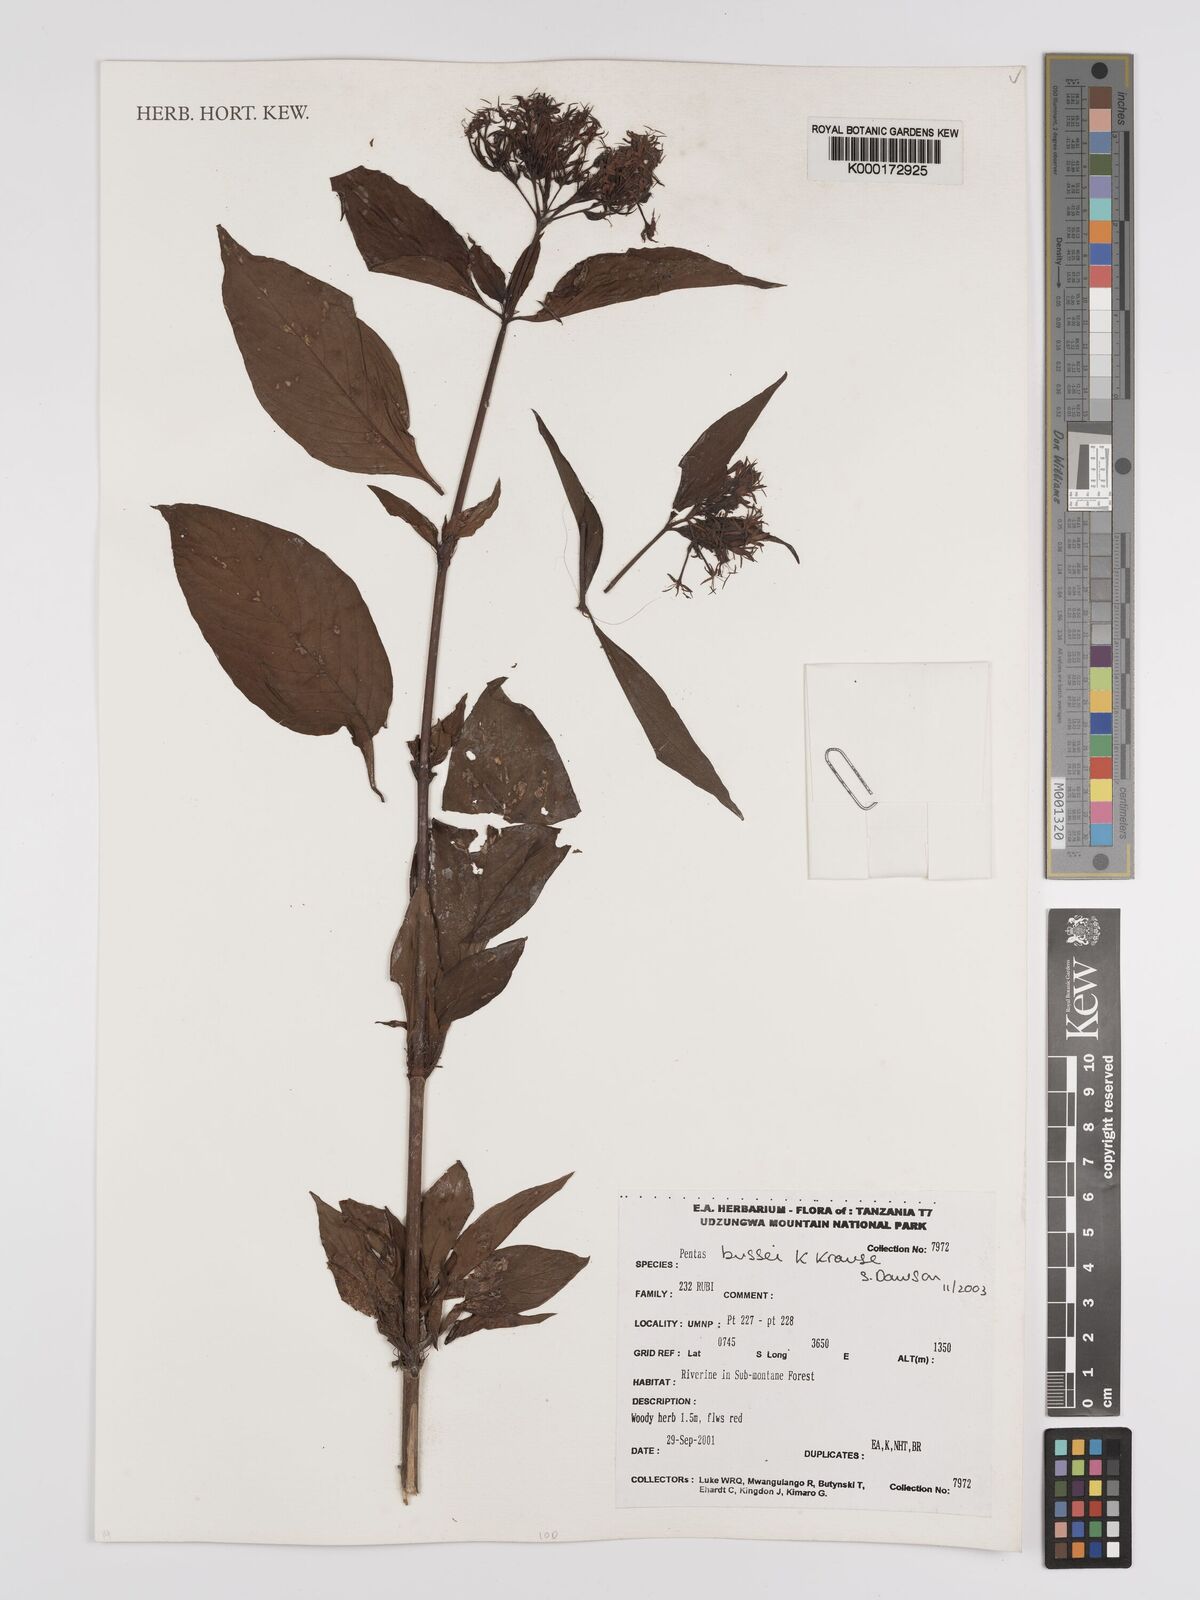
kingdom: Plantae
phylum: Tracheophyta
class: Magnoliopsida
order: Gentianales
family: Rubiaceae
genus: Rhodopentas
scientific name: Rhodopentas
